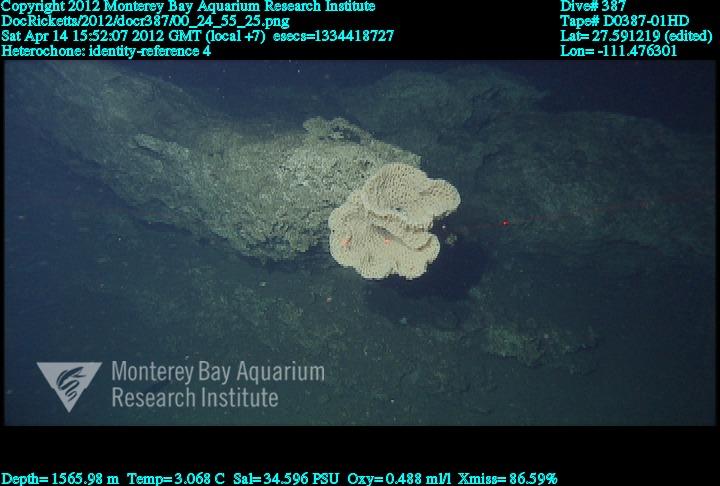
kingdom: Animalia
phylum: Porifera
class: Hexactinellida
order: Sceptrulophora
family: Aphrocallistidae
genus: Heterochone
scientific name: Heterochone
